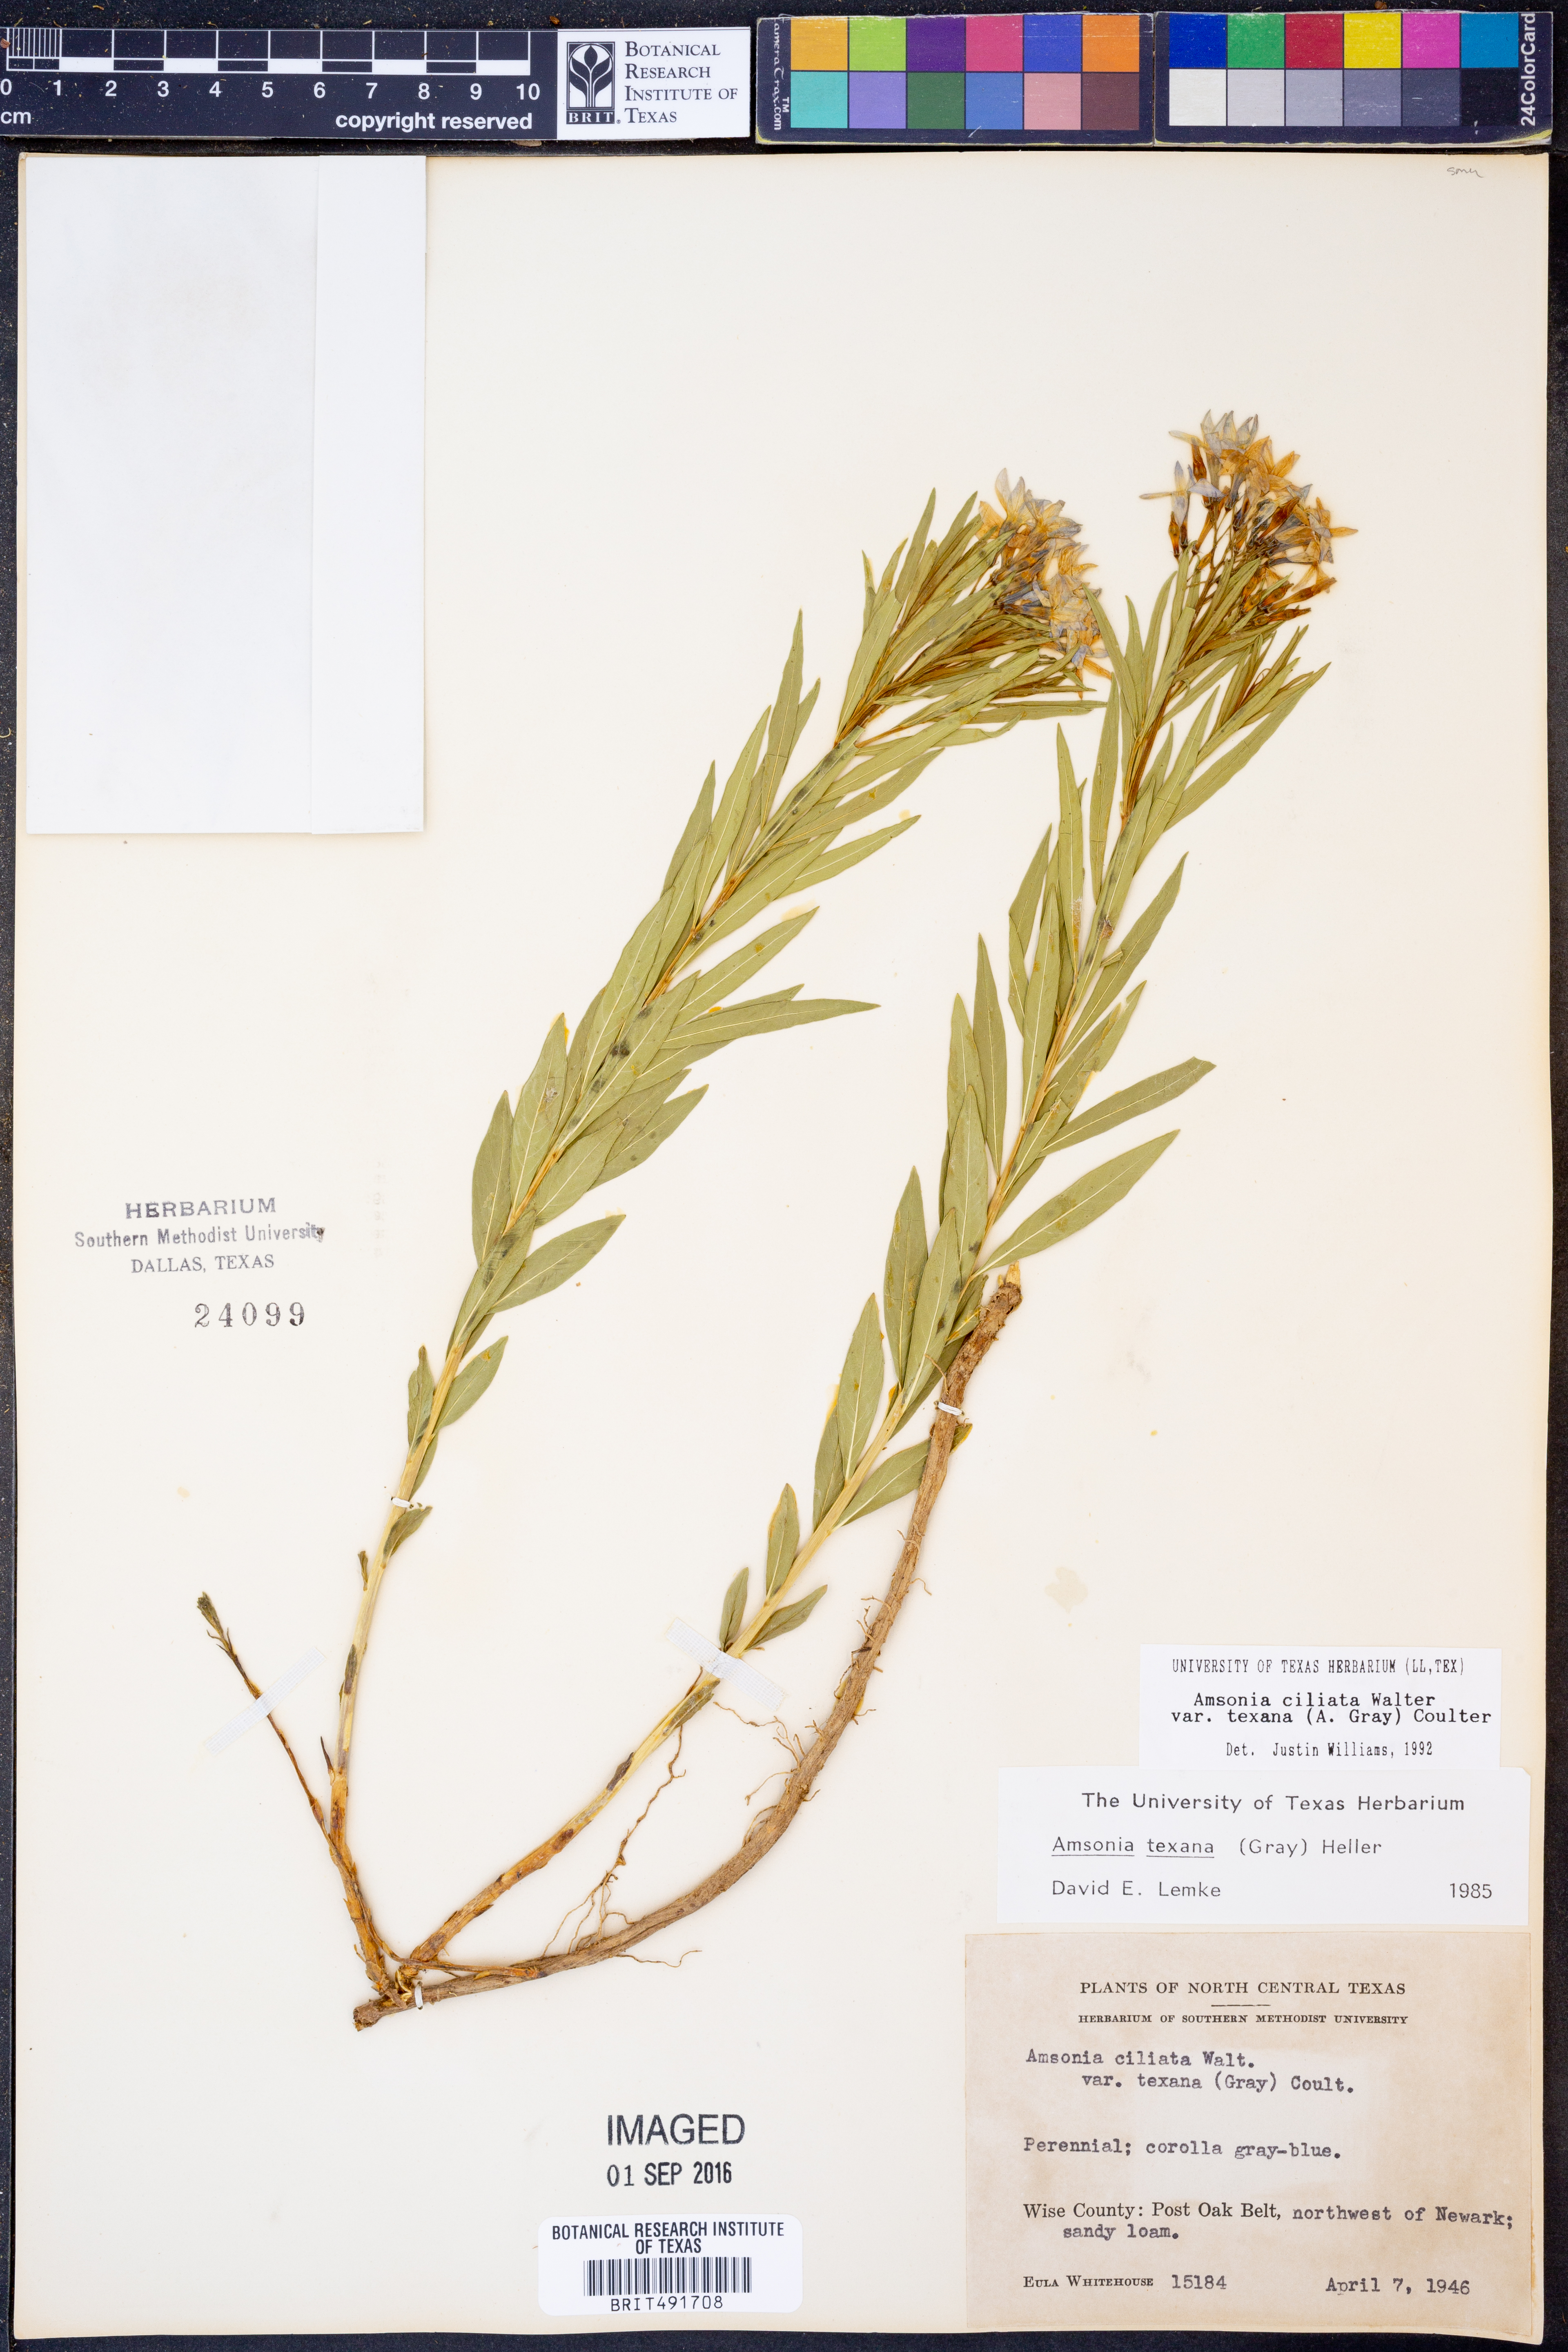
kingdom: Plantae
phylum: Tracheophyta
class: Magnoliopsida
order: Gentianales
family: Apocynaceae
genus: Amsonia
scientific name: Amsonia ciliata
